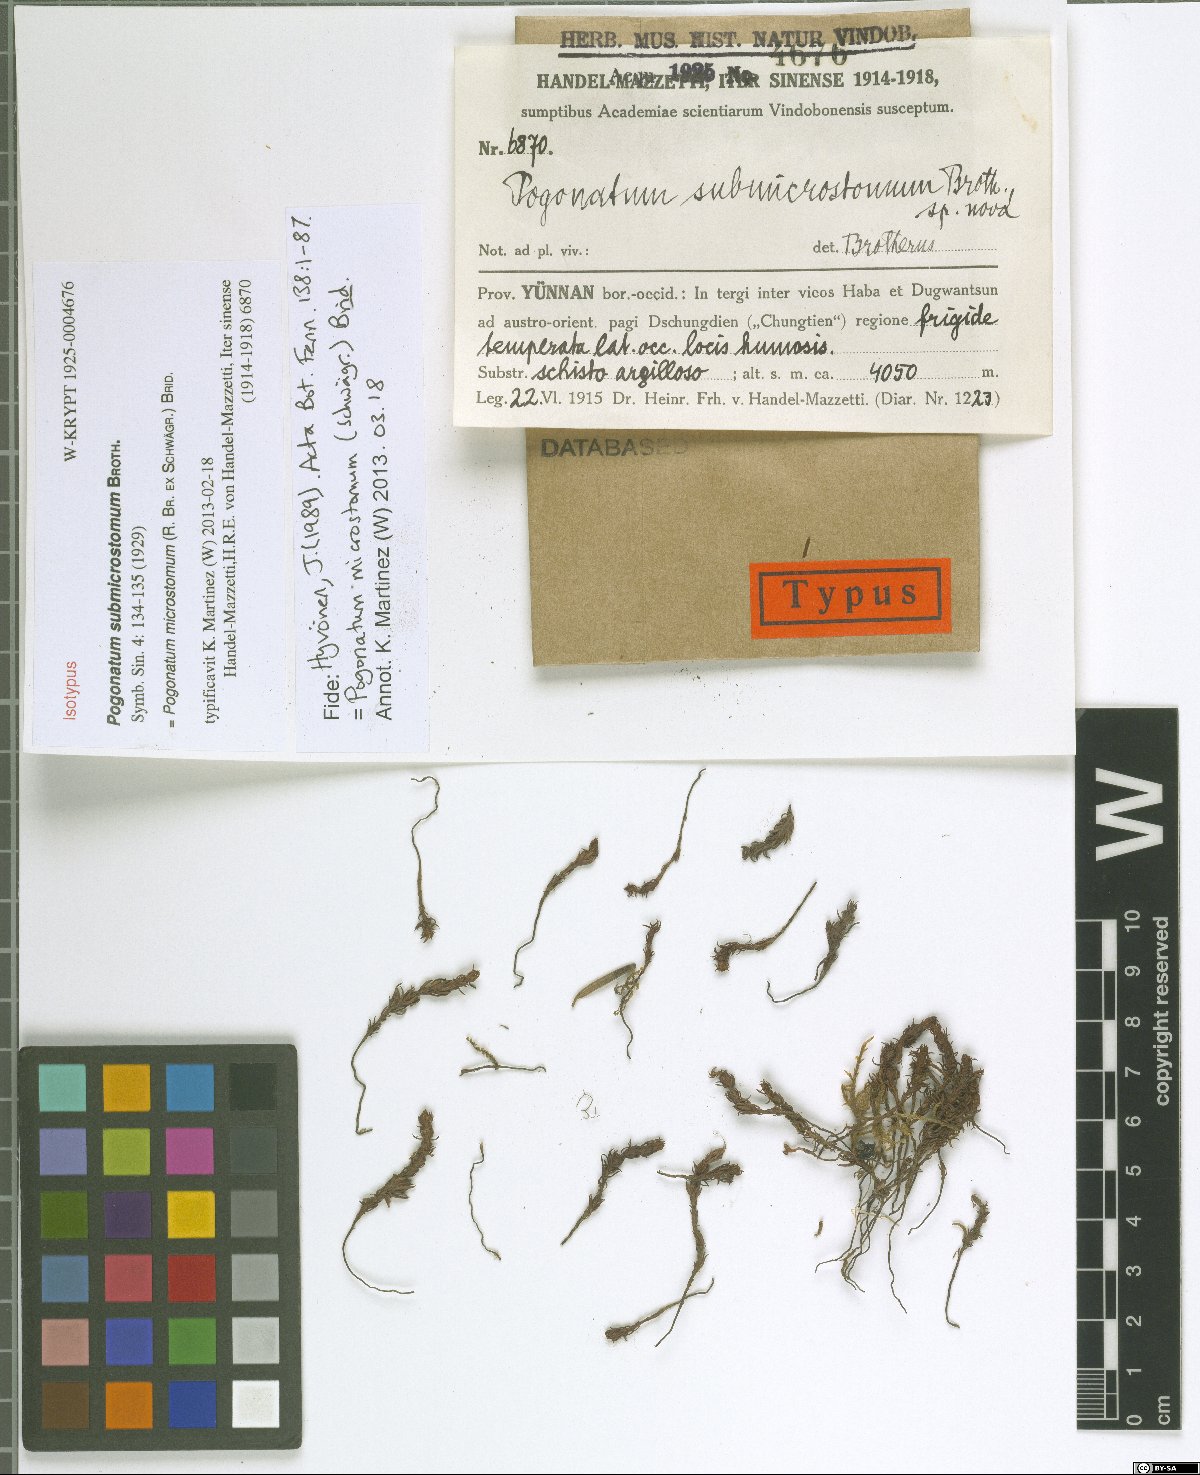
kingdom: Plantae
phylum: Bryophyta
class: Polytrichopsida
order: Polytrichales
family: Polytrichaceae
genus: Pogonatum
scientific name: Pogonatum microstomum
